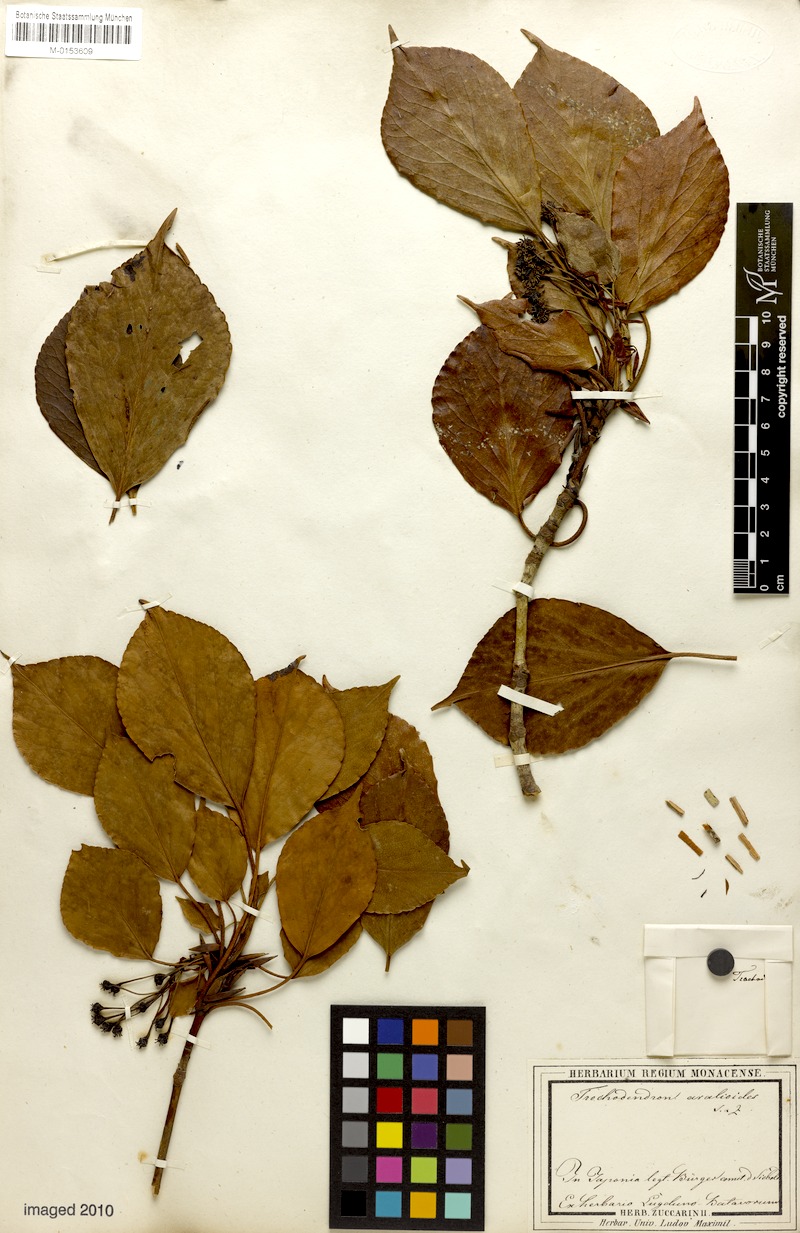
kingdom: Plantae
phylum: Tracheophyta
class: Magnoliopsida
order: Trochodendrales
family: Trochodendraceae
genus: Trochodendron
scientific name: Trochodendron aralioides
